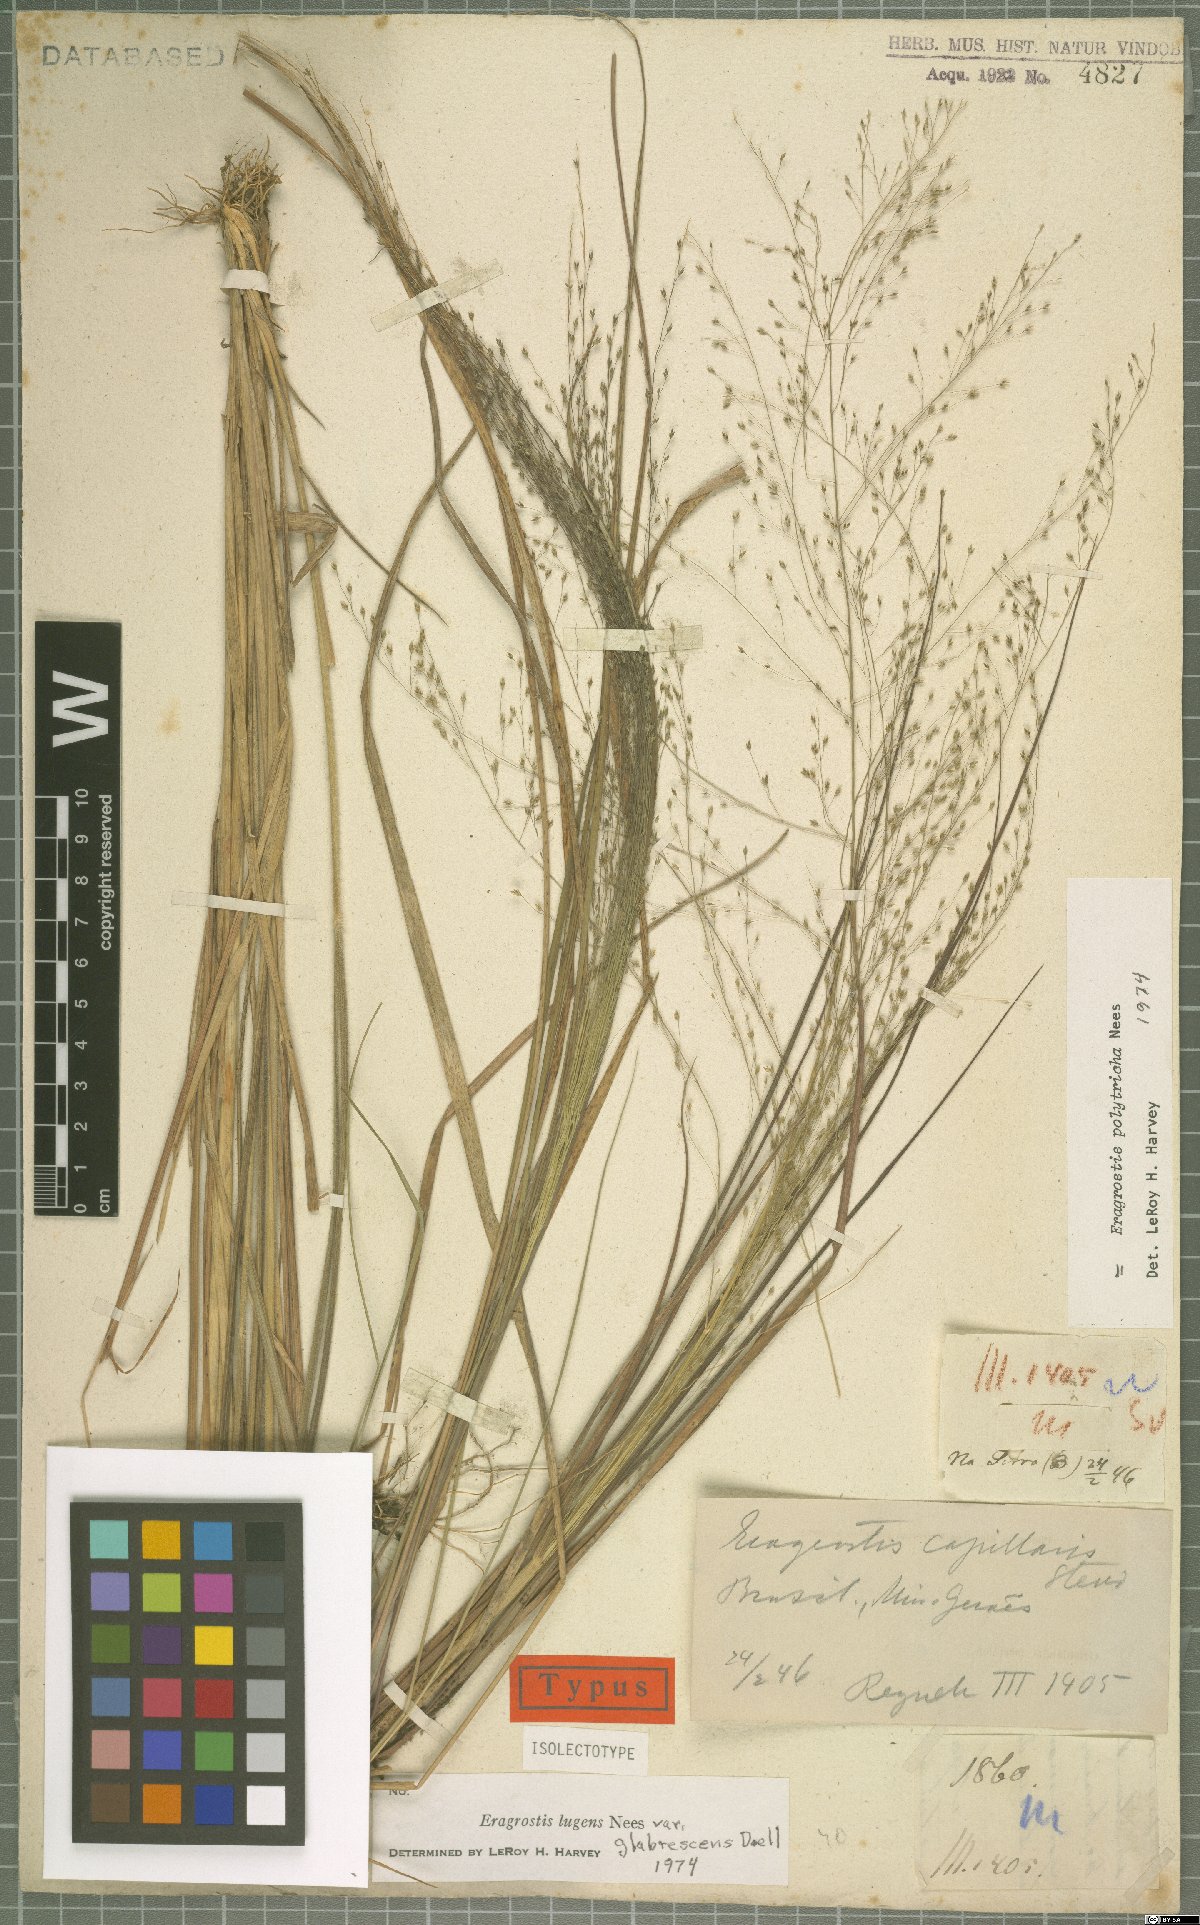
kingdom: Plantae
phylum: Tracheophyta
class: Liliopsida
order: Poales
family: Poaceae
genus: Eragrostis
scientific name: Eragrostis polytricha
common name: Hairy-sheath love grass
